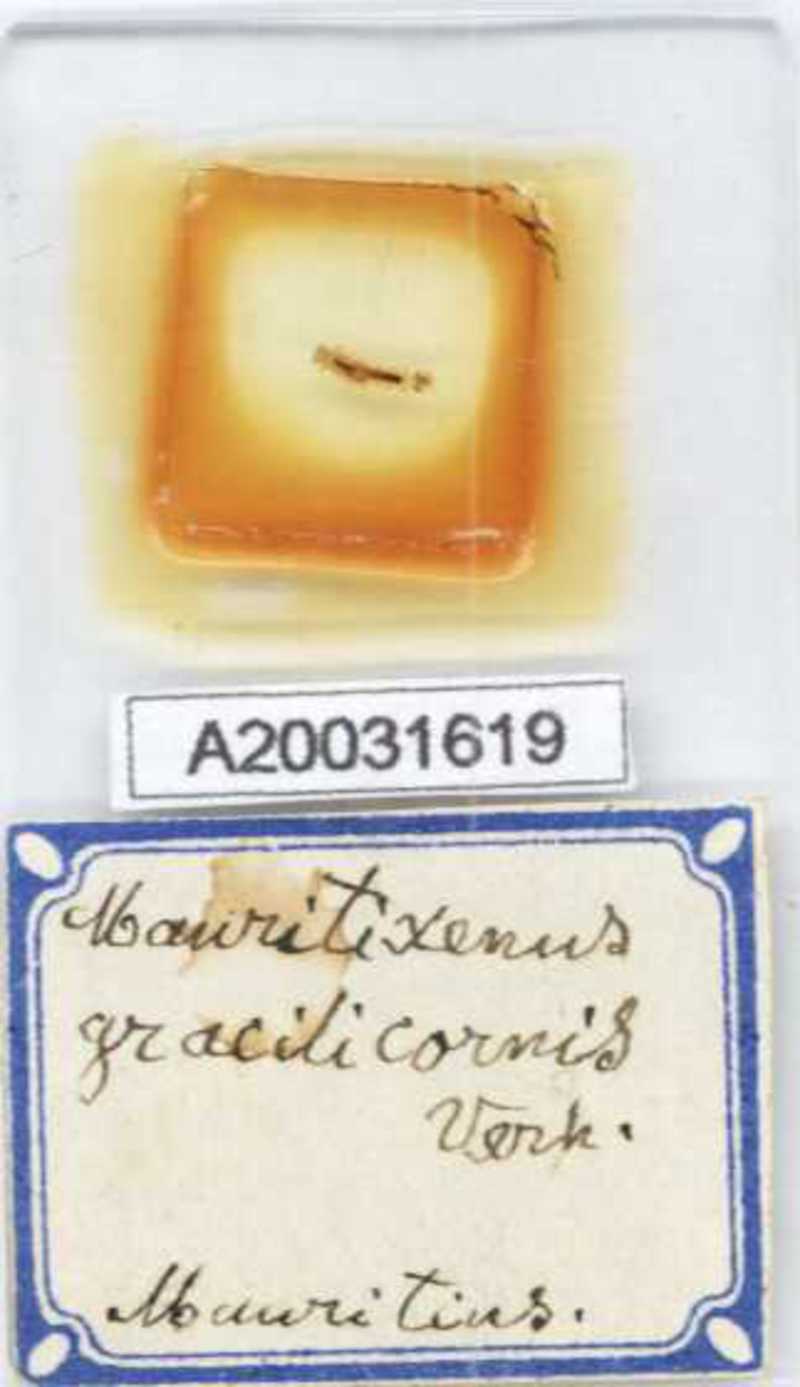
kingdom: Animalia
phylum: Arthropoda
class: Diplopoda
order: Polyxenida
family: Polyxenidae
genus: Mauritixenus
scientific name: Mauritixenus gracilicornis
